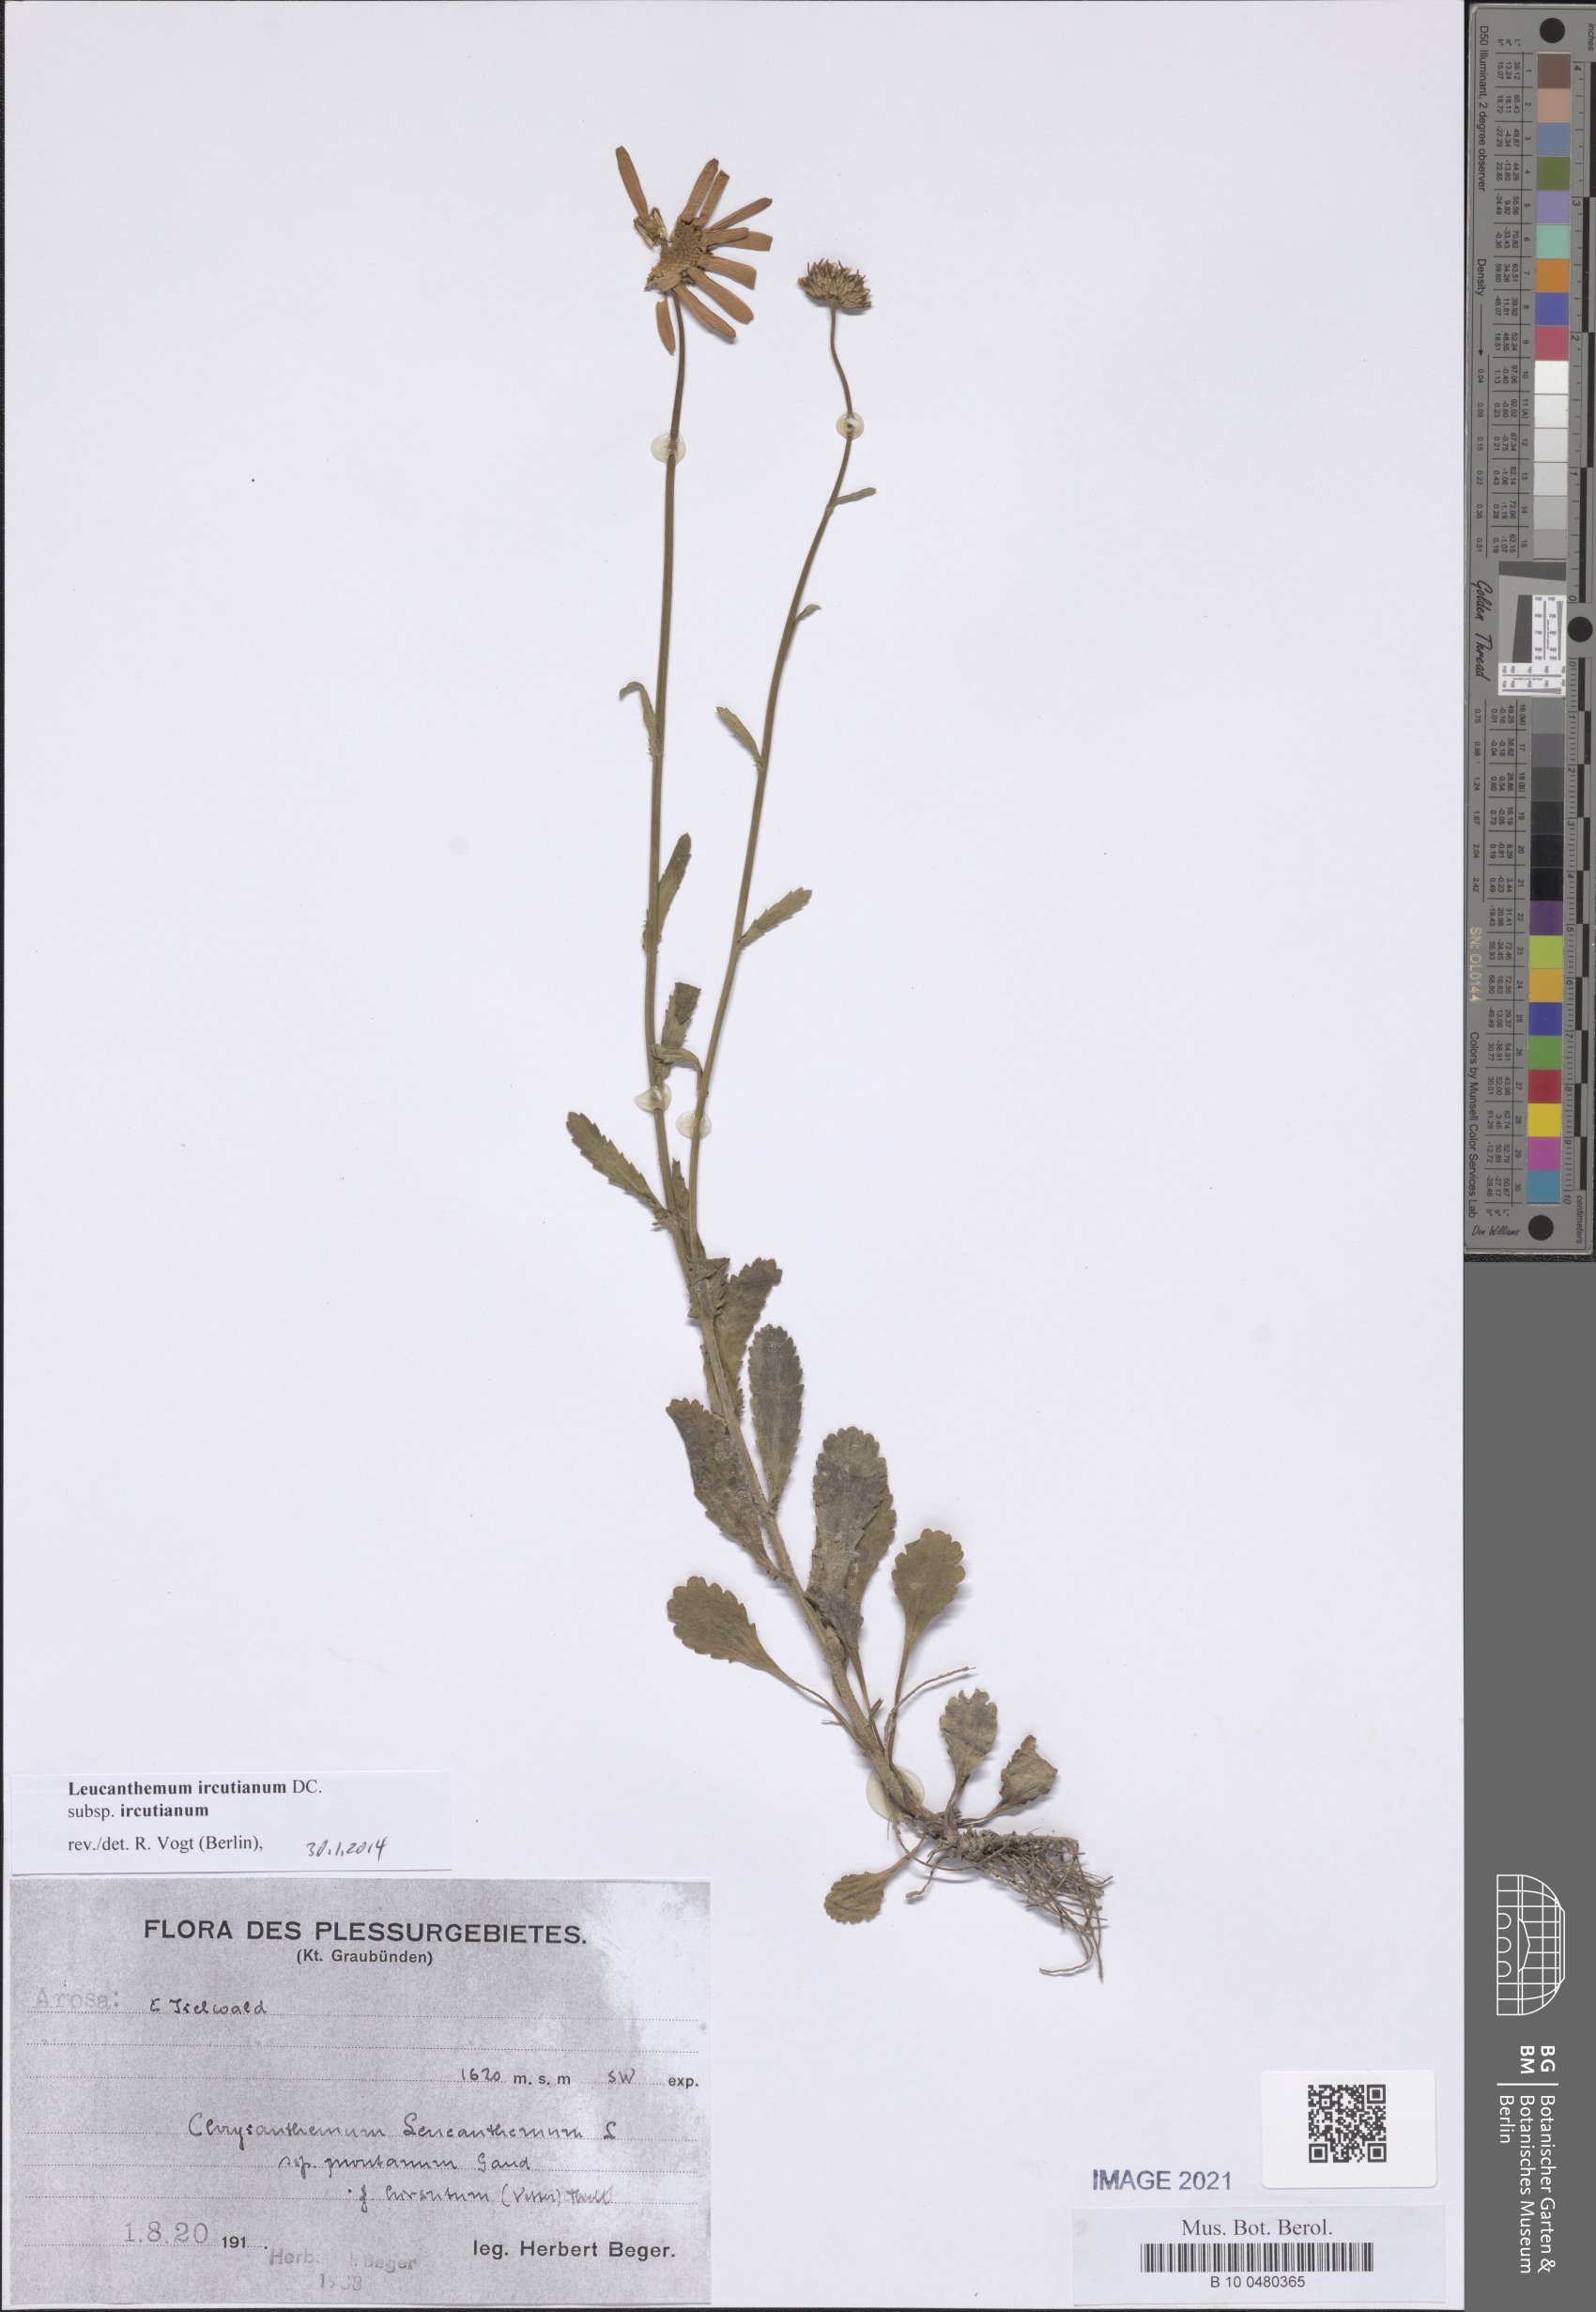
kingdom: Plantae
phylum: Tracheophyta
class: Magnoliopsida
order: Asterales
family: Asteraceae
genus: Leucanthemum
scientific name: Leucanthemum ircutianum
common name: Daisy
